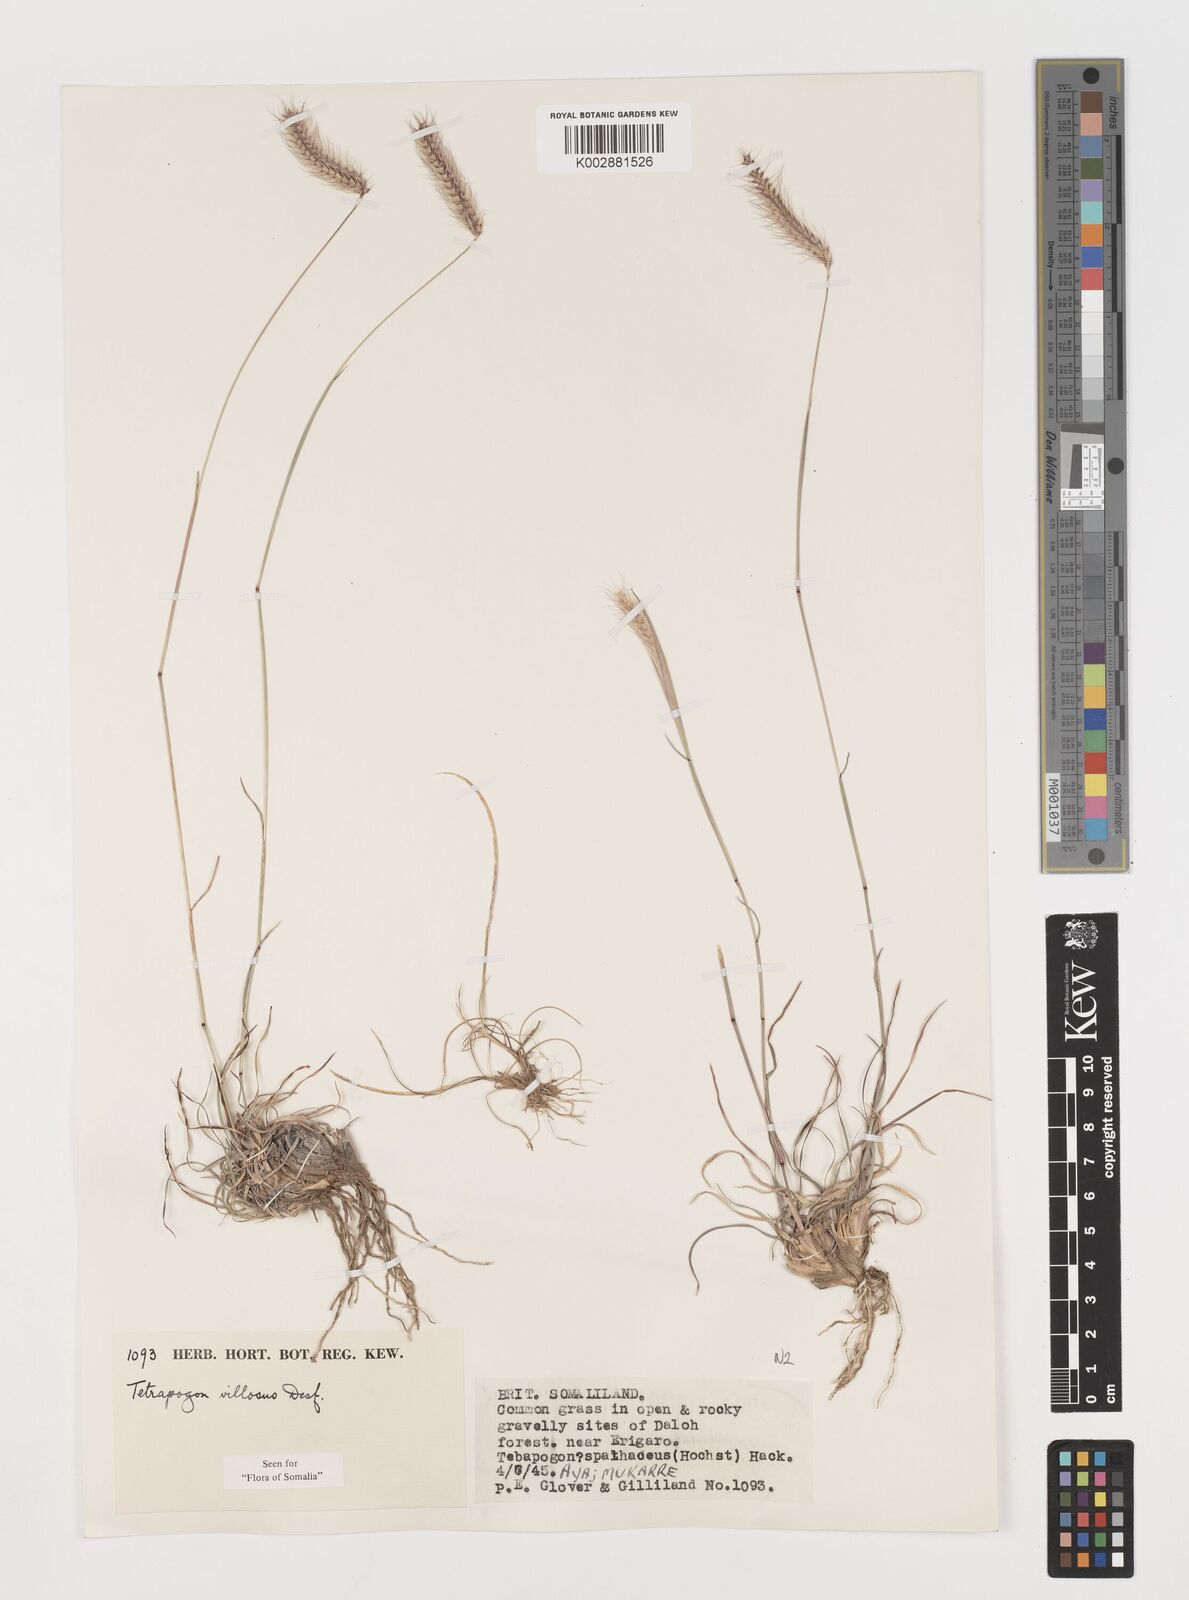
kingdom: Plantae
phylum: Tracheophyta
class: Liliopsida
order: Poales
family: Poaceae
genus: Tetrapogon
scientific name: Tetrapogon villosus
